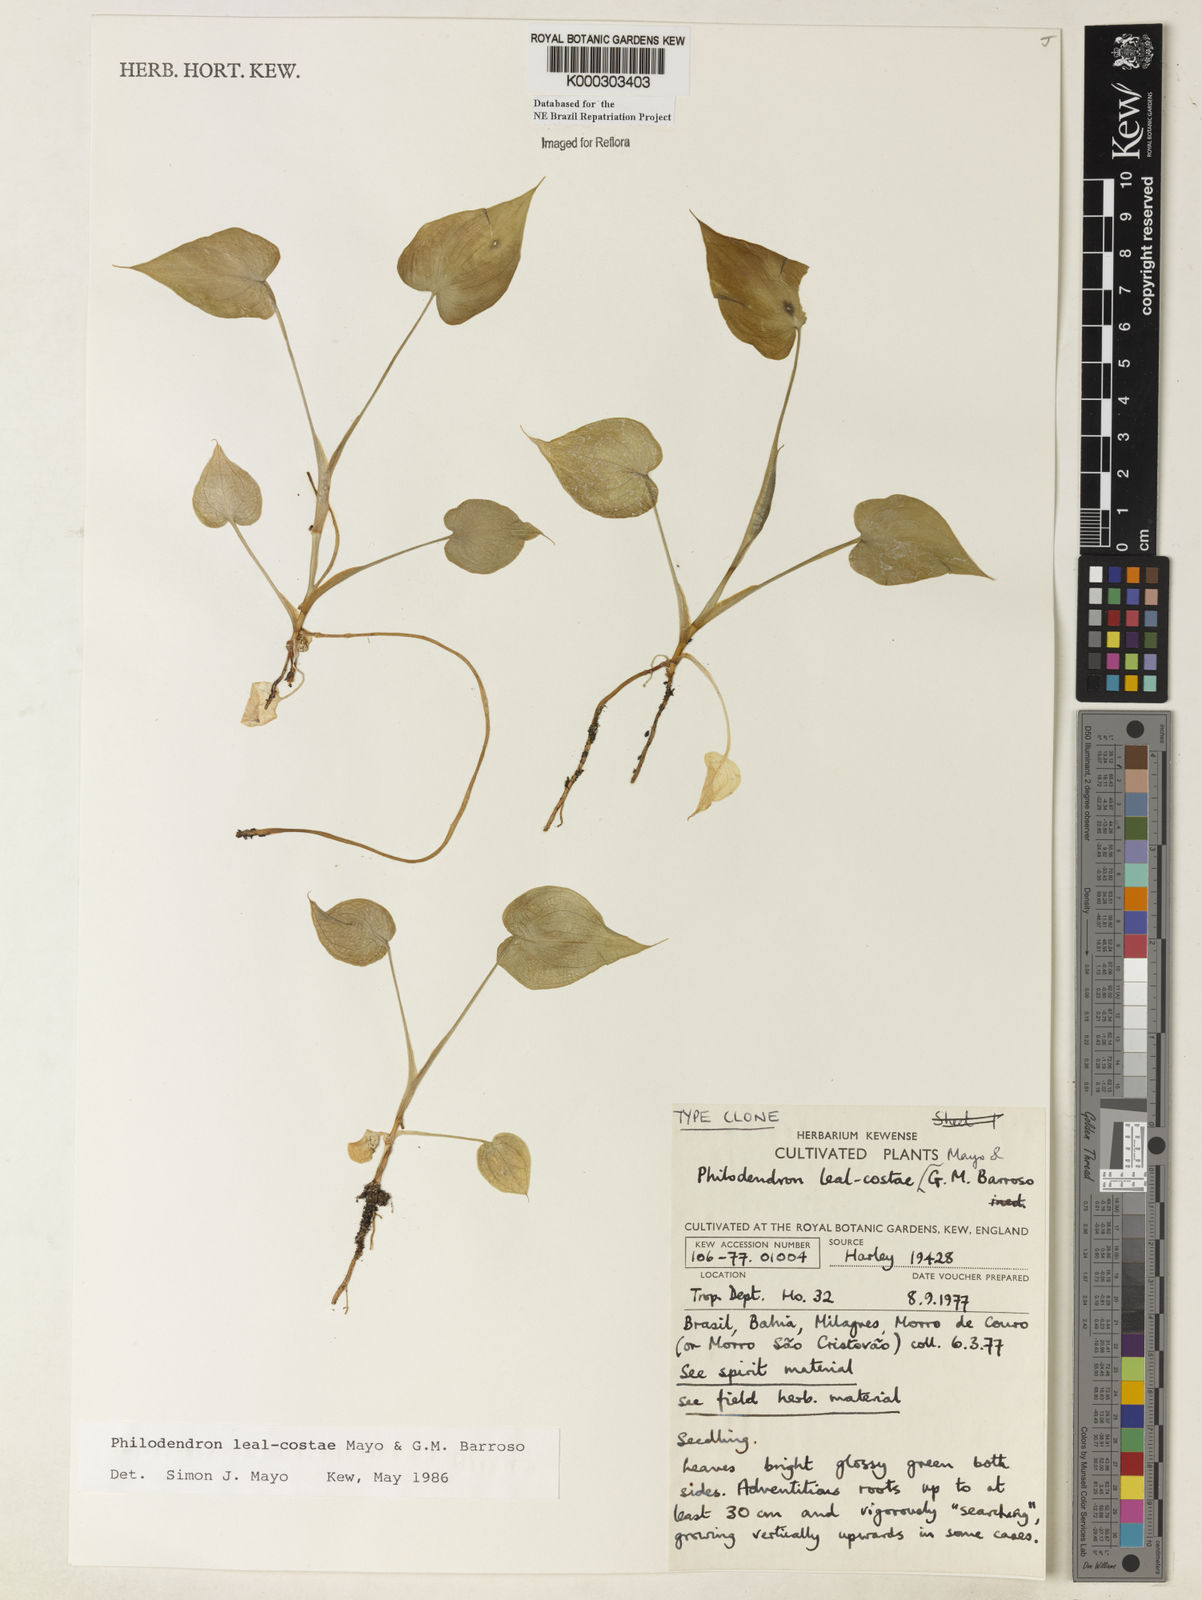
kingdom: Plantae
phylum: Tracheophyta
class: Liliopsida
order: Alismatales
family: Araceae
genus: Thaumatophyllum
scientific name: Thaumatophyllum leal-costae
